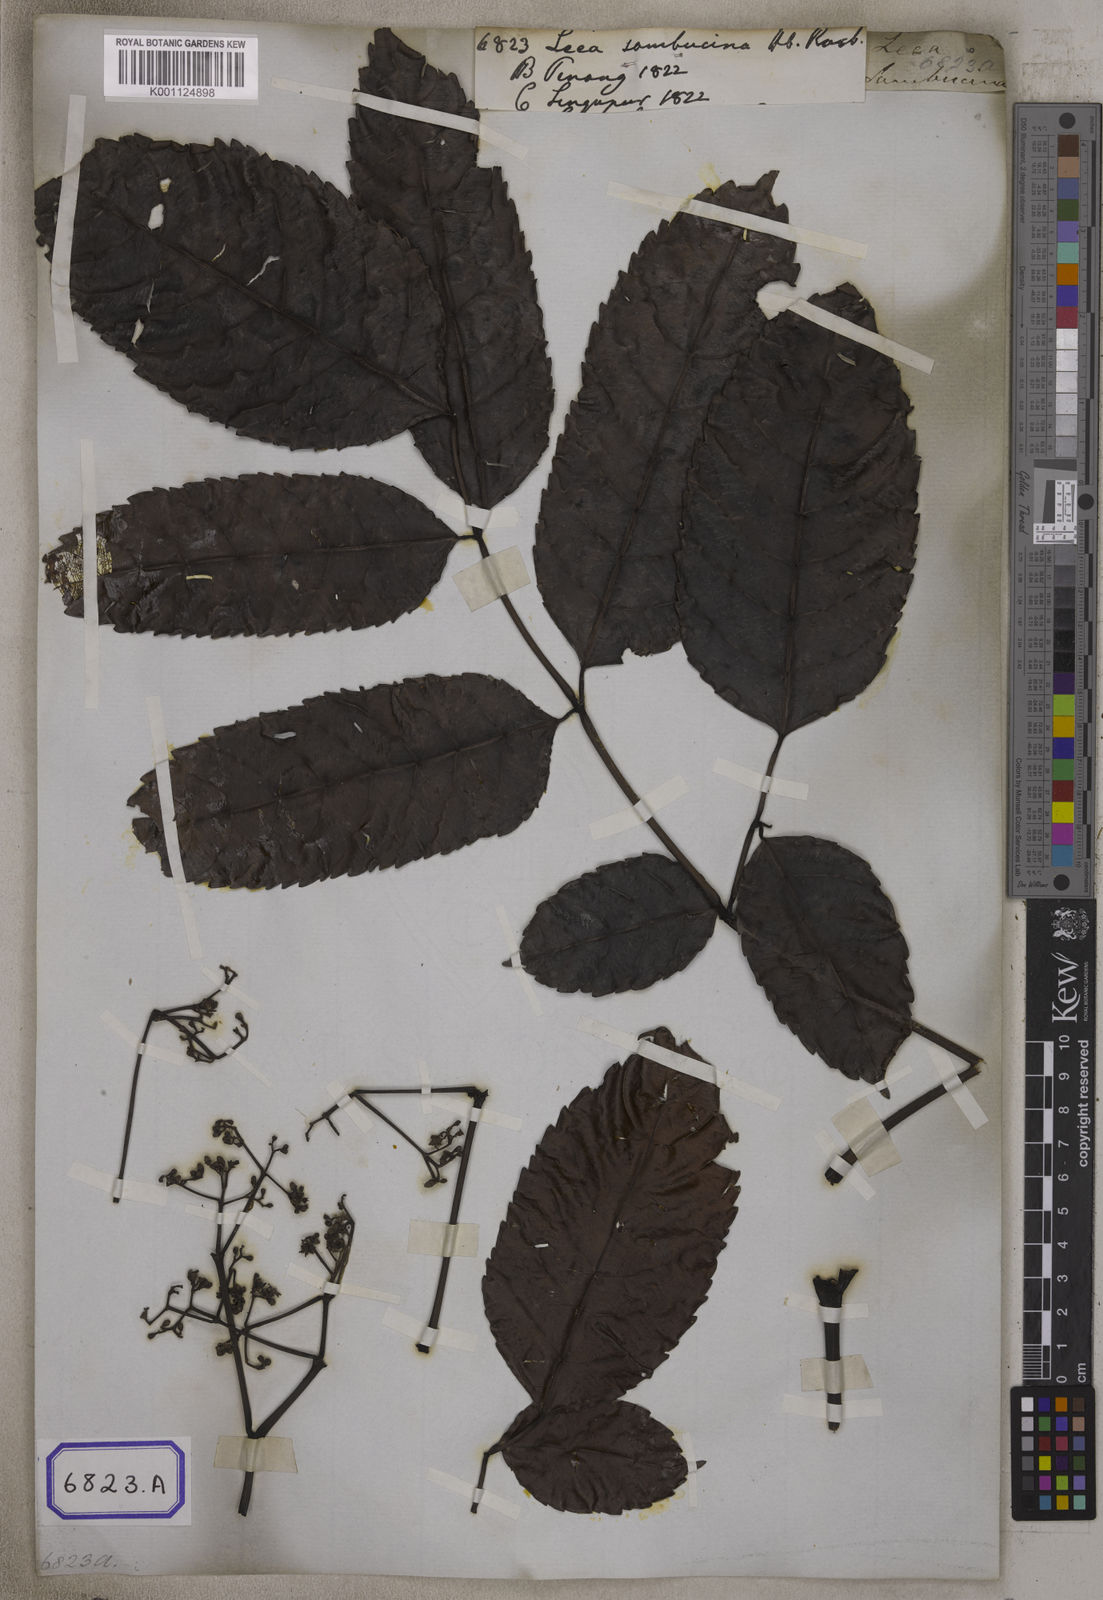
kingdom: Plantae
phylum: Tracheophyta
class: Magnoliopsida
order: Vitales
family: Vitaceae
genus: Leea
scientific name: Leea indica
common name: Bandicoot-berry
